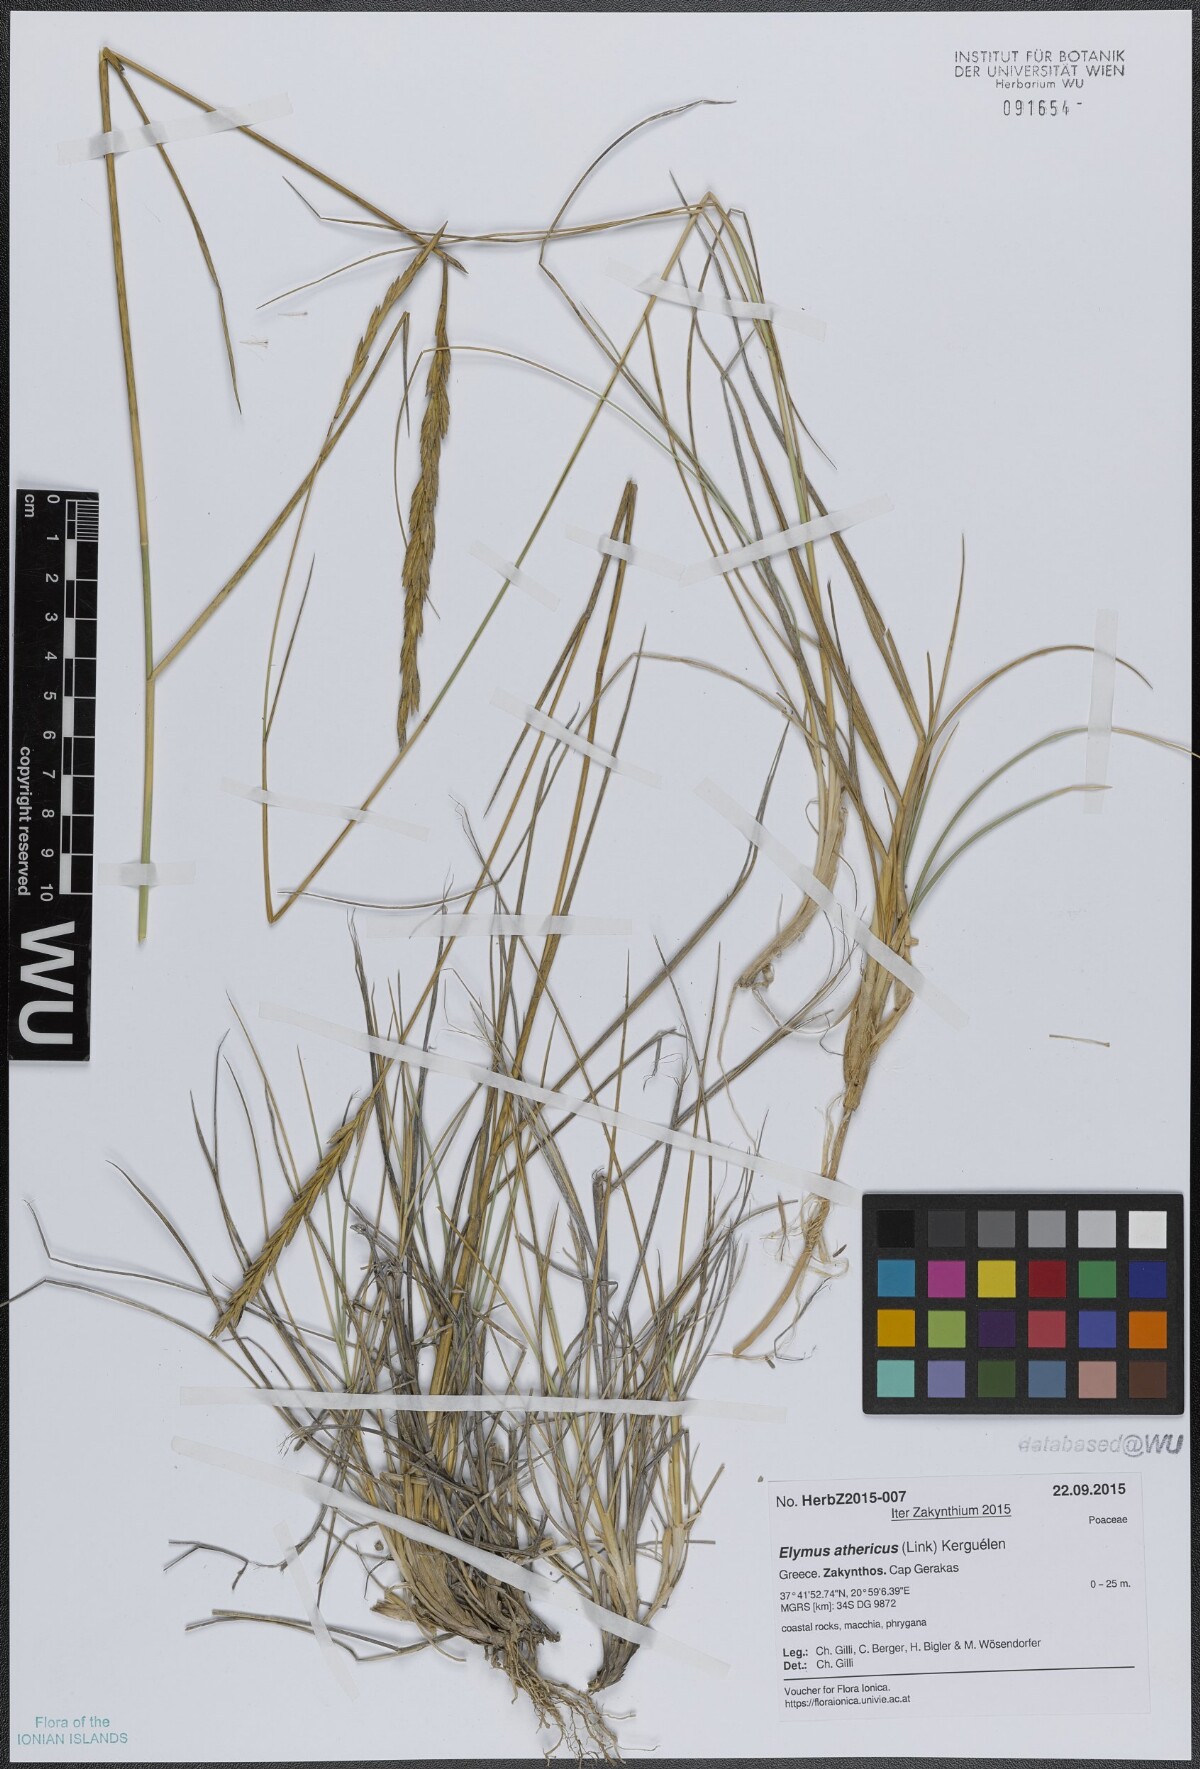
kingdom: Plantae
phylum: Tracheophyta
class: Liliopsida
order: Poales
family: Poaceae
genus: Elymus
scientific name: Elymus athericus
